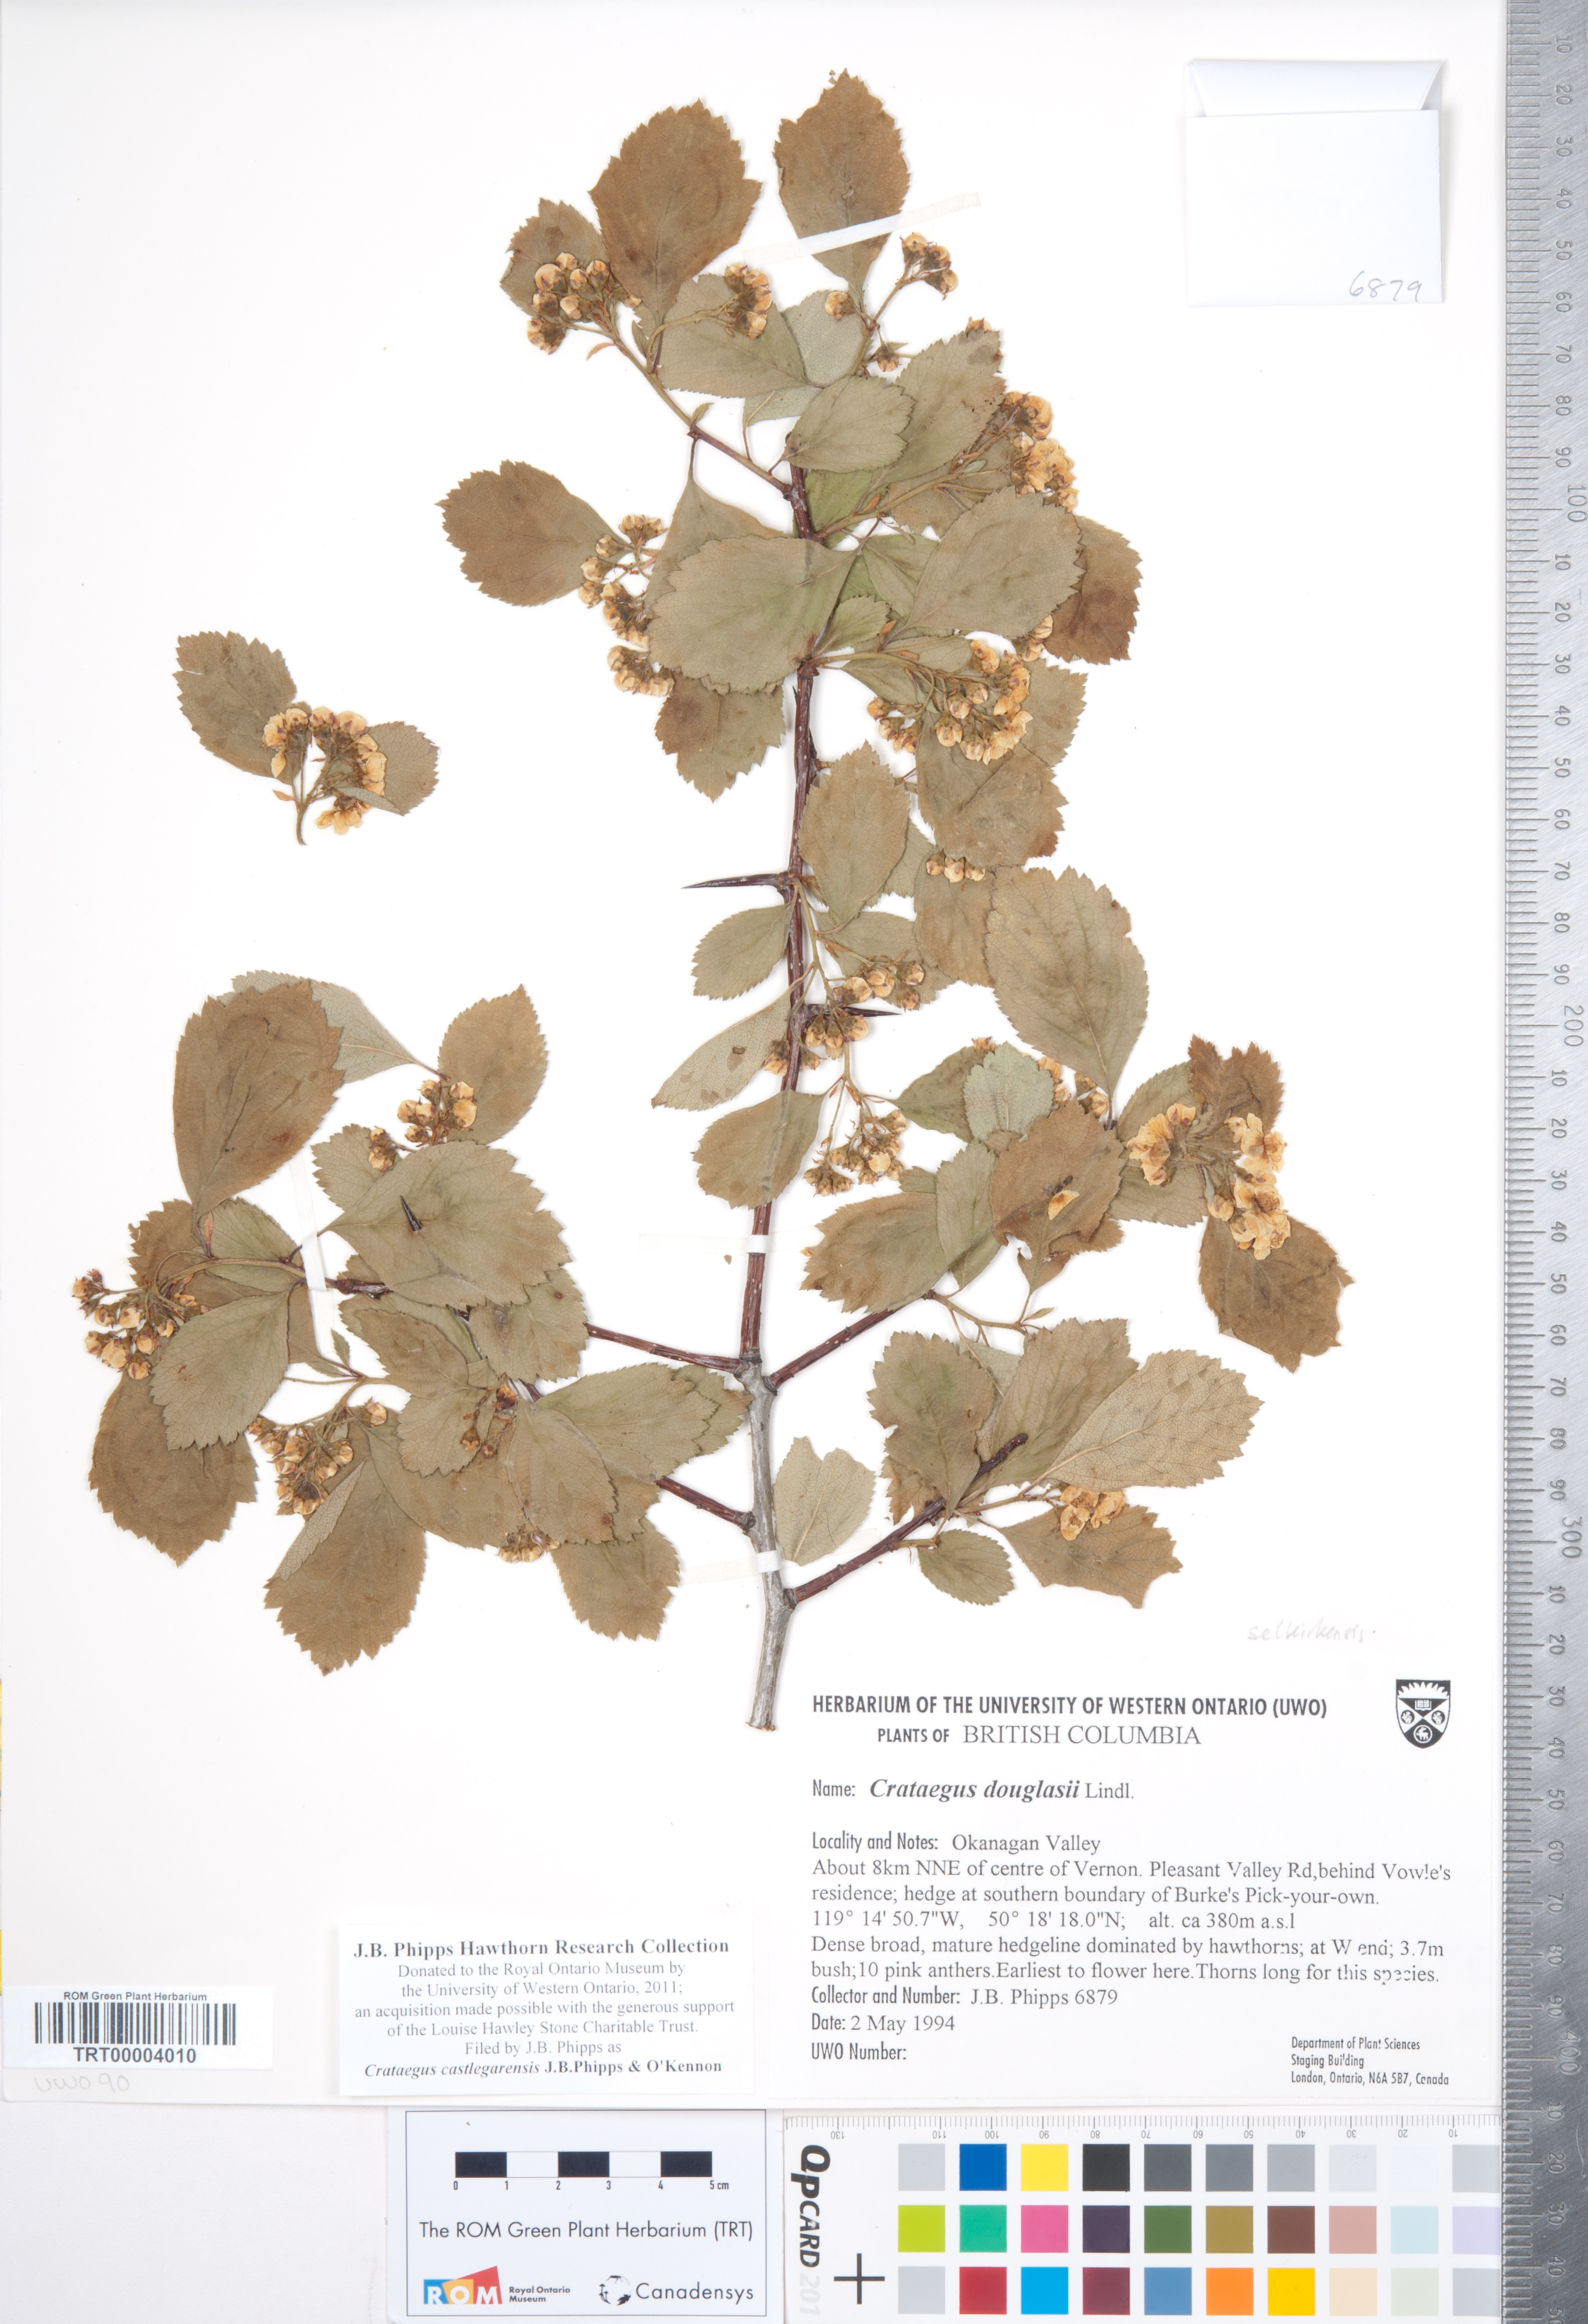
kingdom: Plantae
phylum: Tracheophyta
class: Magnoliopsida
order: Rosales
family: Rosaceae
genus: Crataegus
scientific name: Crataegus castlegarensis
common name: Castlegar hawthorn
